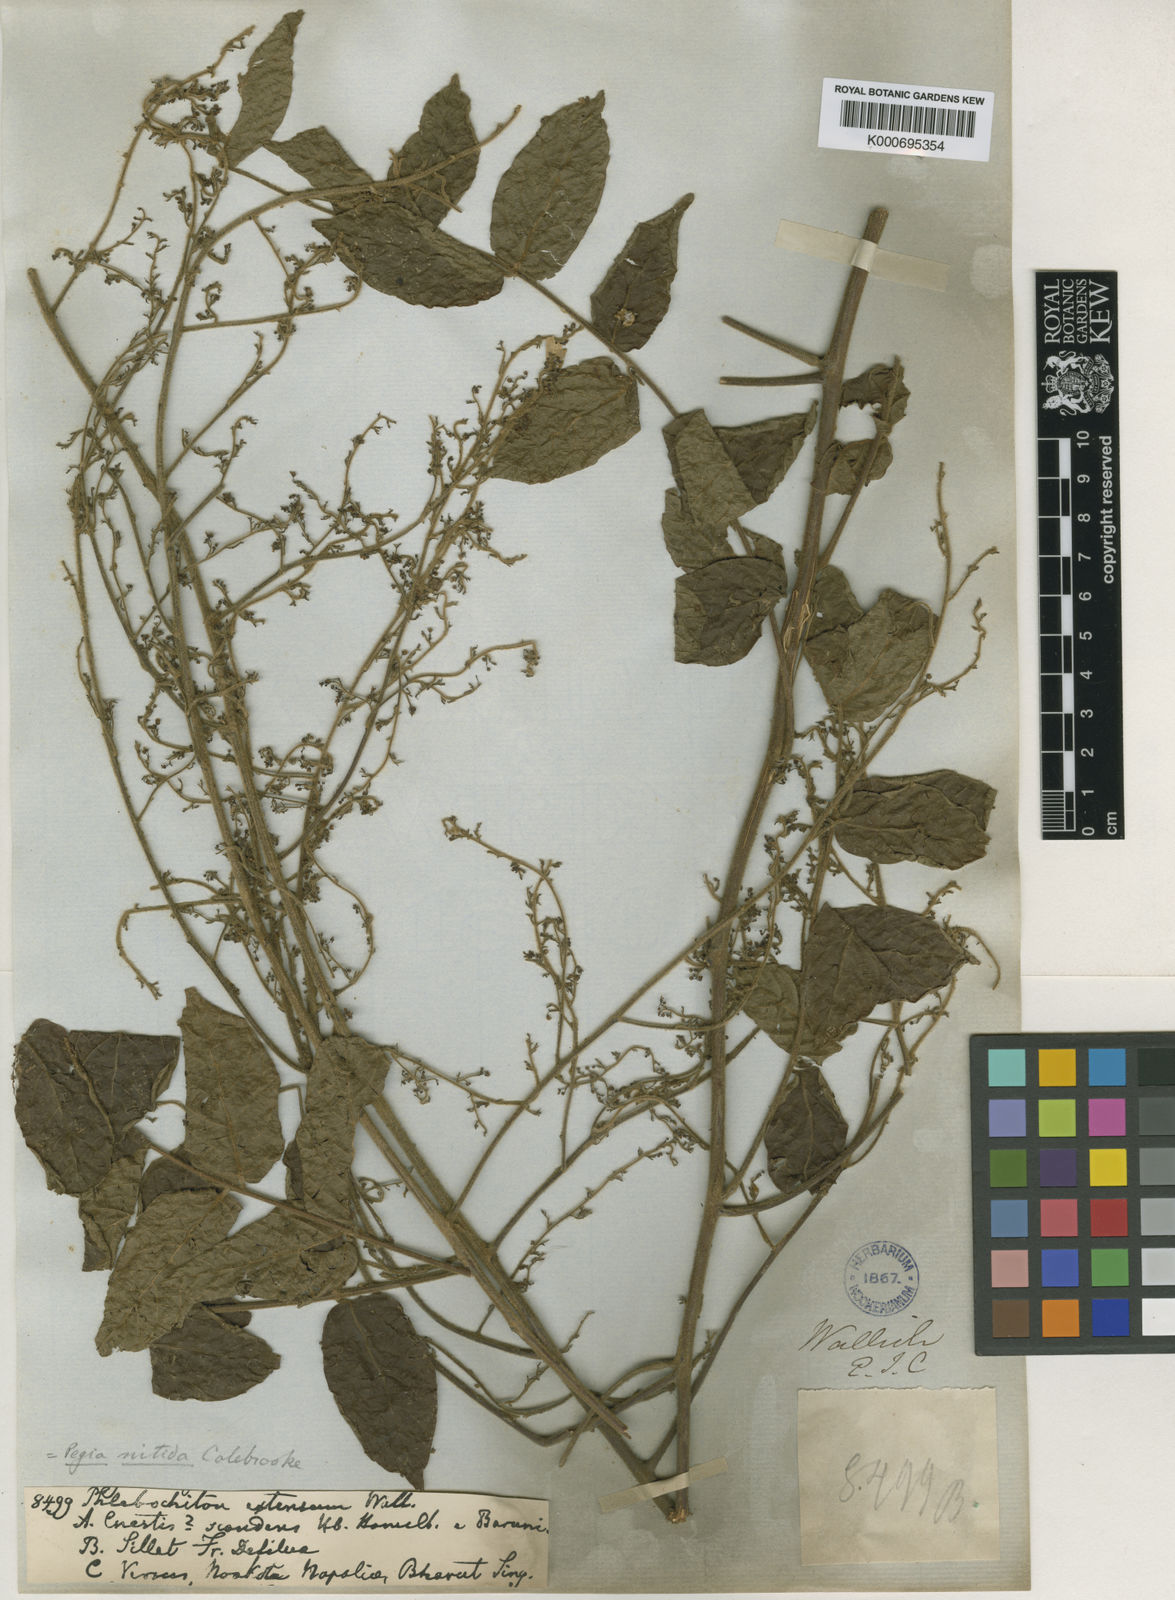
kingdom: Plantae
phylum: Tracheophyta
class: Magnoliopsida
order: Sapindales
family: Anacardiaceae
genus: Pegia
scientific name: Pegia nitida
